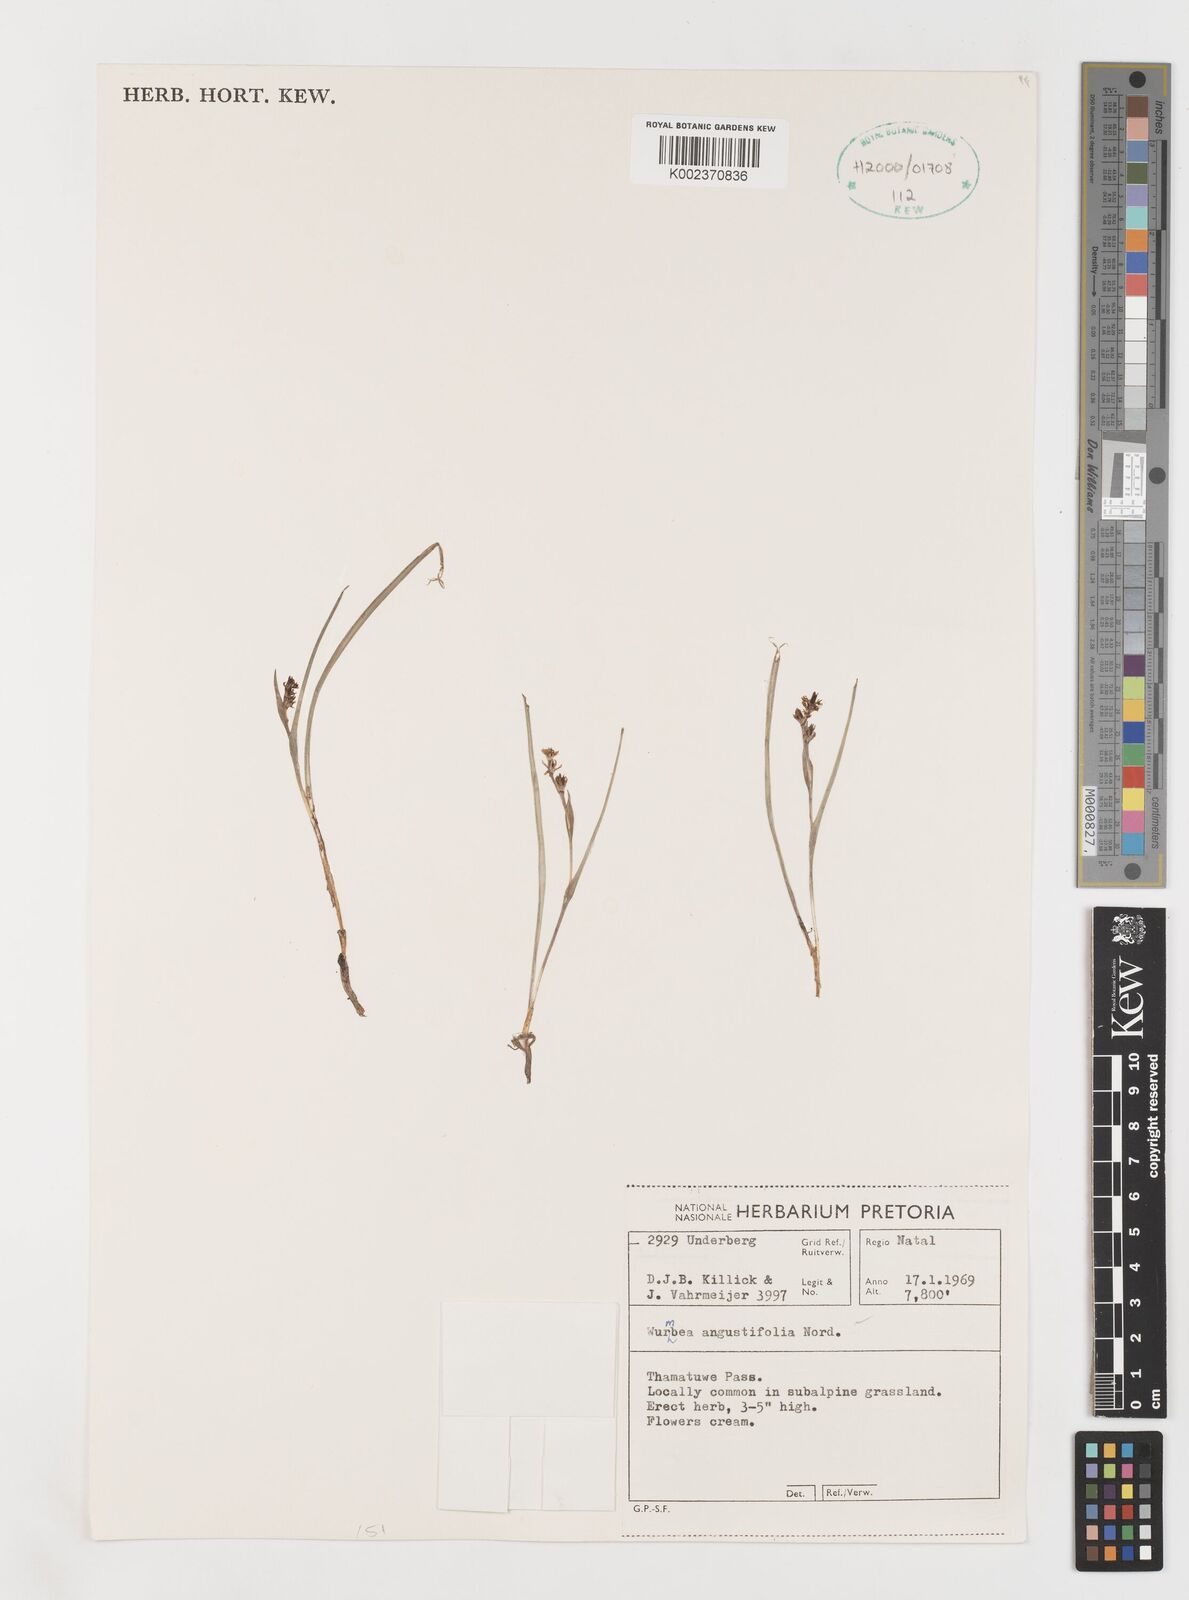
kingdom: Plantae
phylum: Tracheophyta
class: Liliopsida
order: Liliales
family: Colchicaceae
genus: Wurmbea
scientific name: Wurmbea angustifolia
